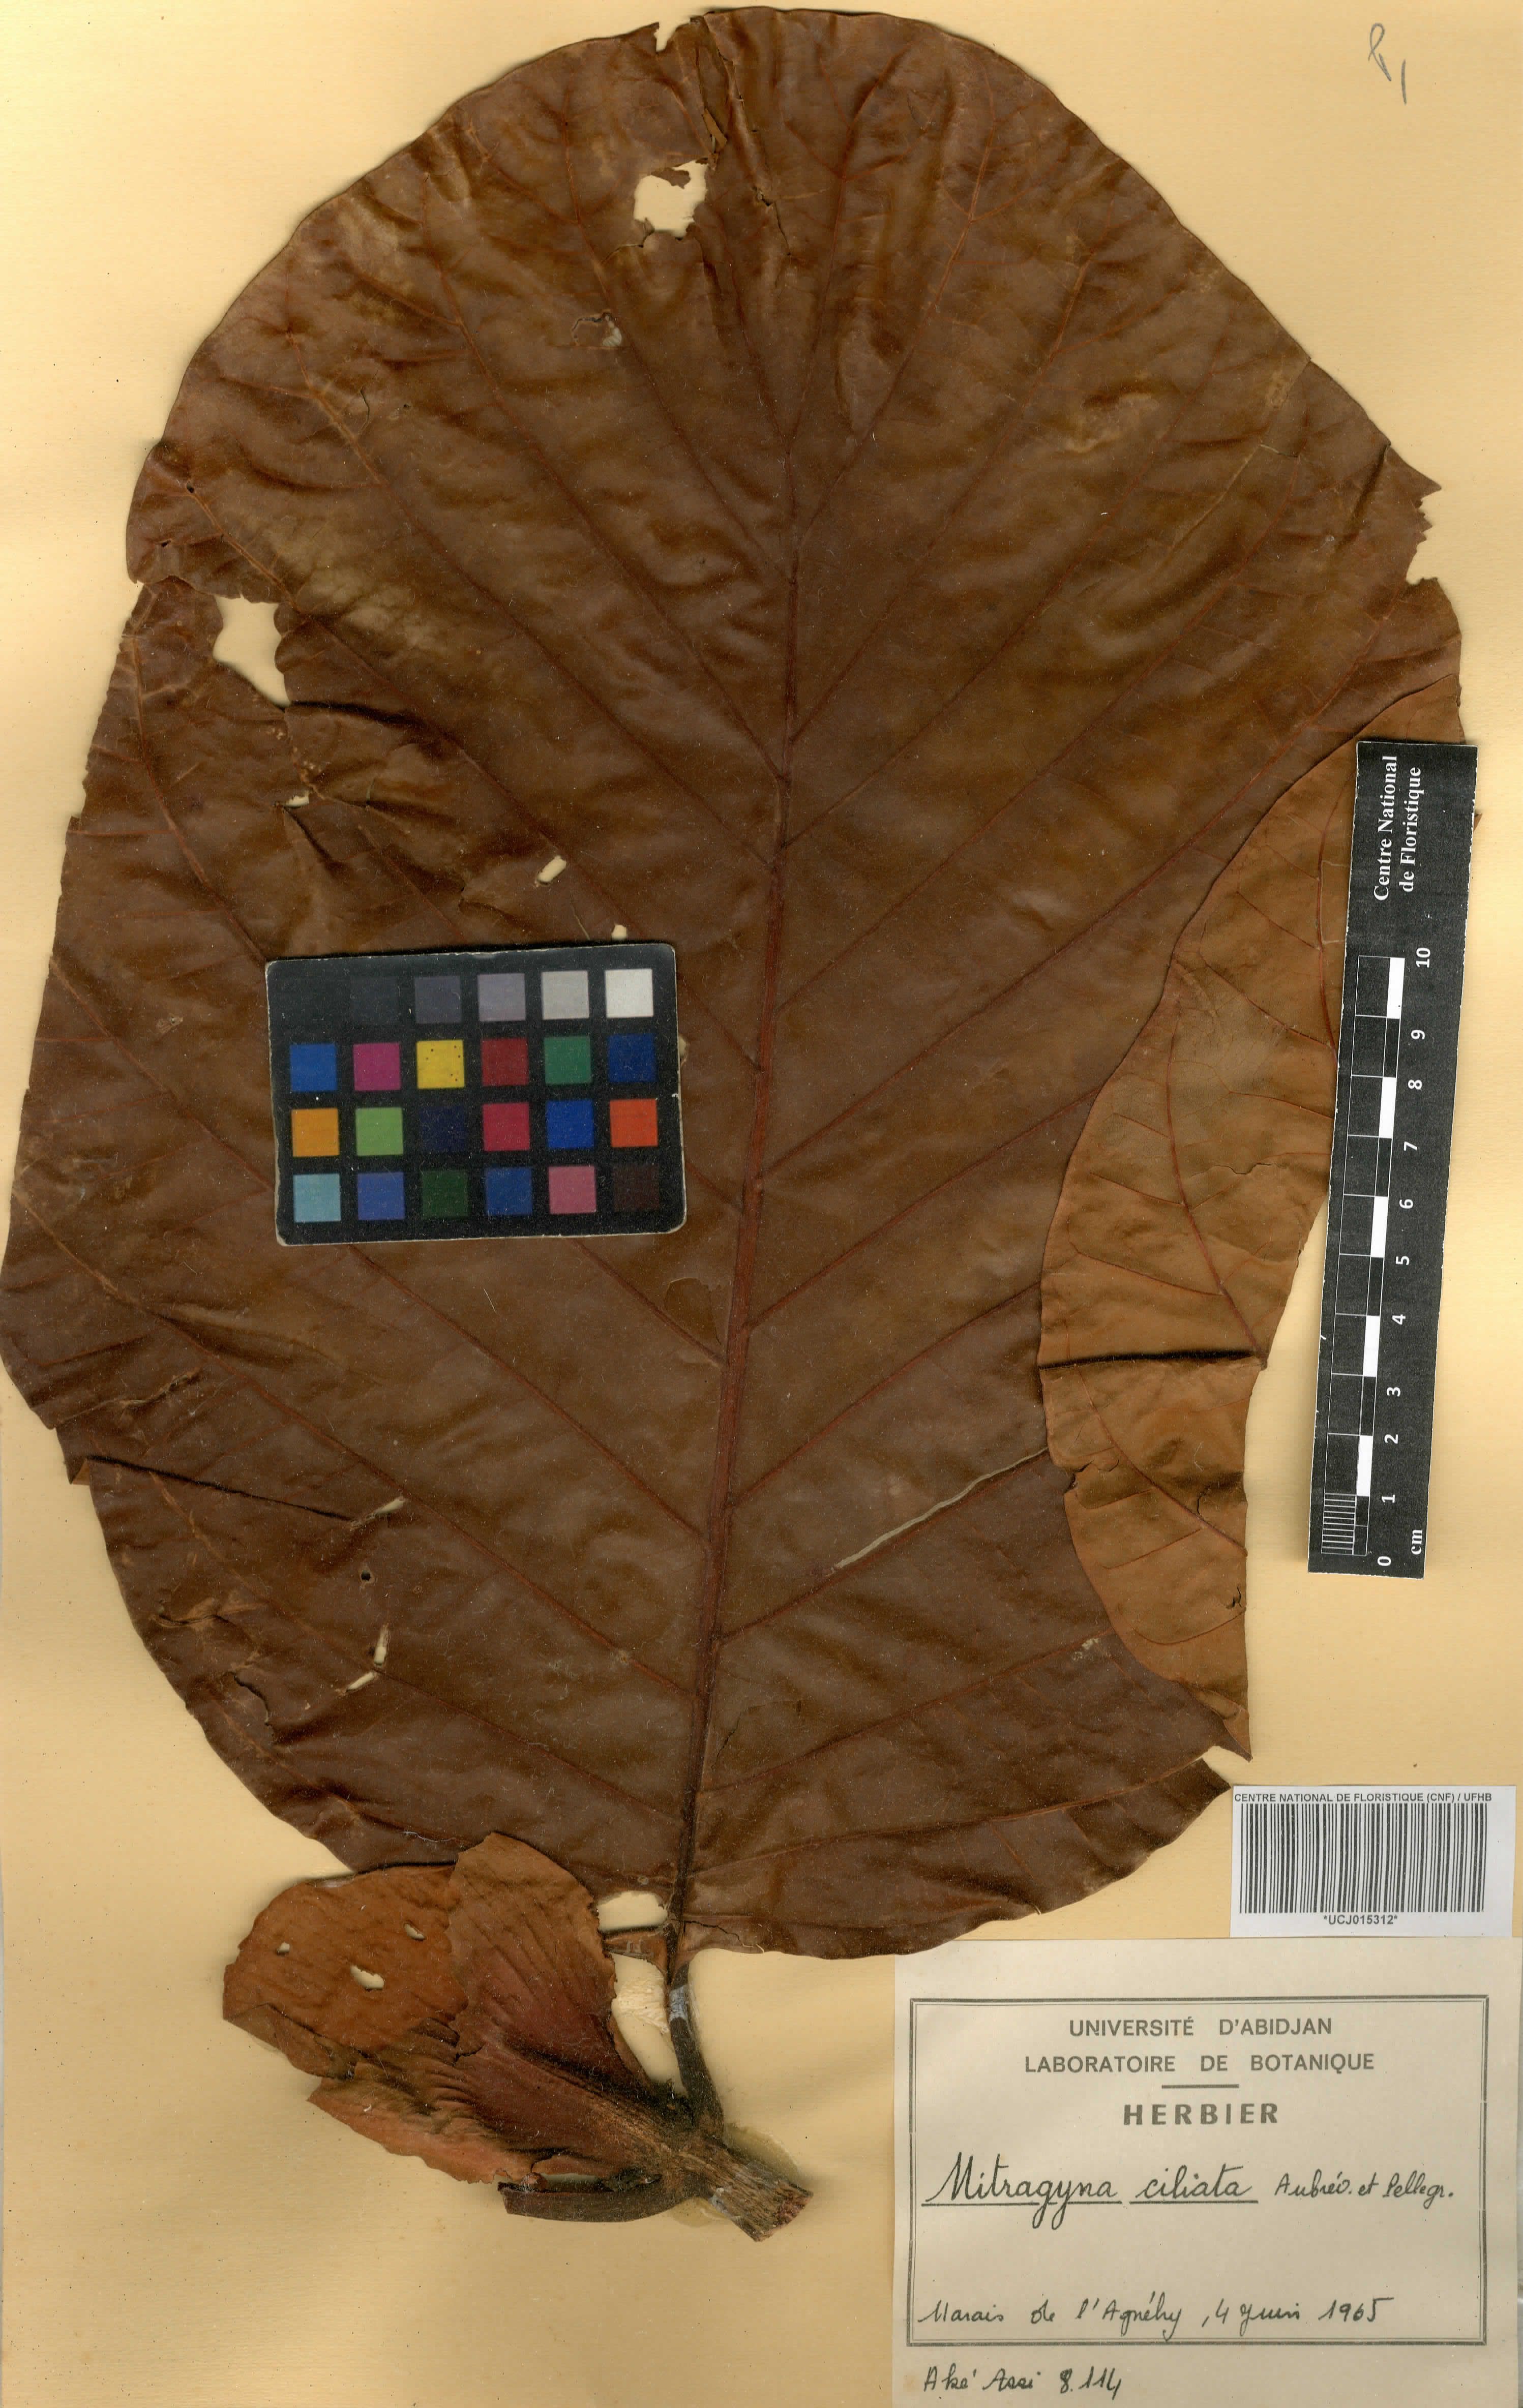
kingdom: Plantae
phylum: Tracheophyta
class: Magnoliopsida
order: Gentianales
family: Rubiaceae
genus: Mitragyna
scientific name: Mitragyna ciliata
